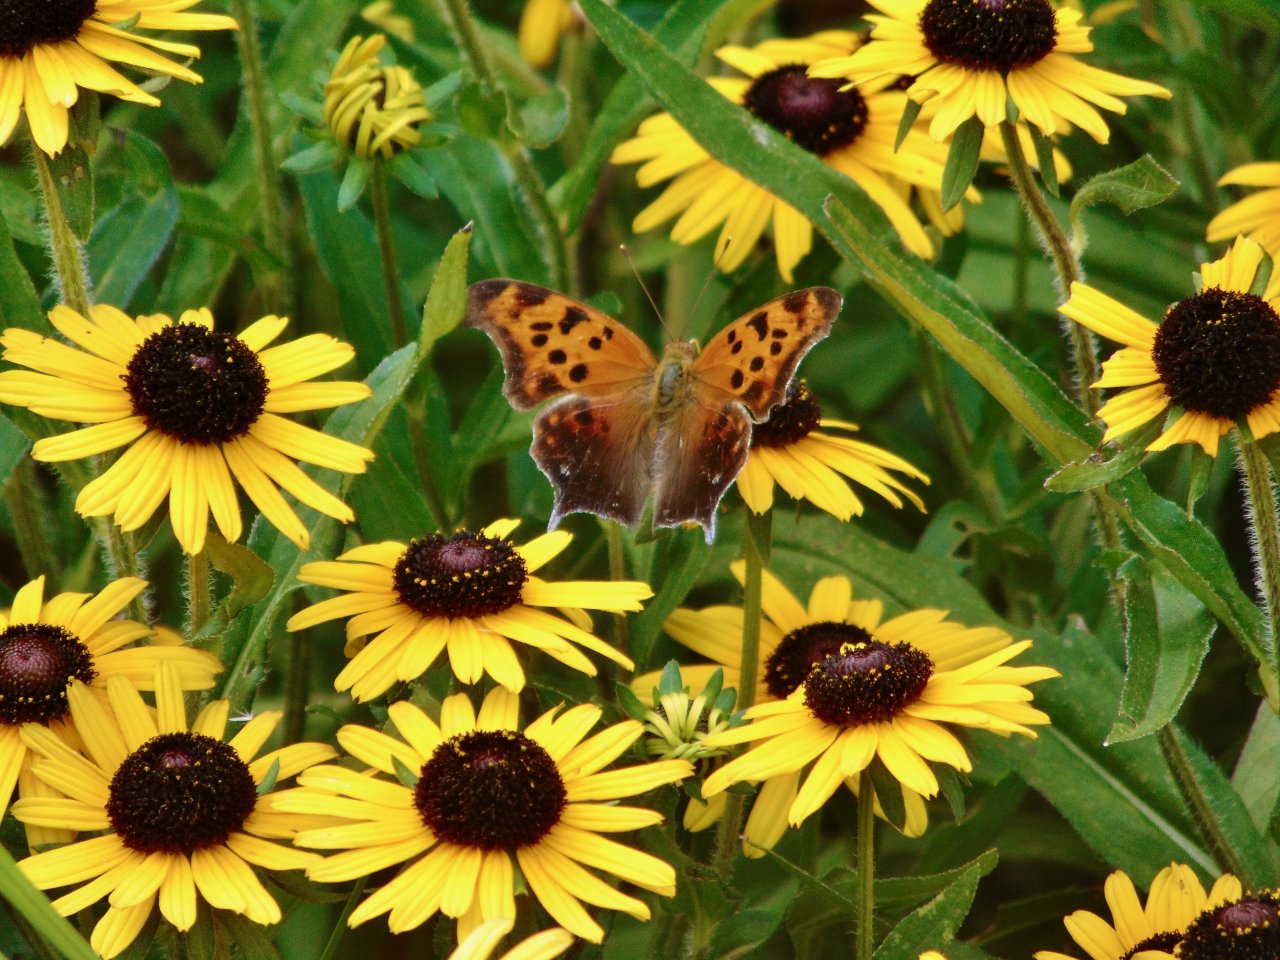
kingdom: Animalia
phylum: Arthropoda
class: Insecta
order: Lepidoptera
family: Nymphalidae
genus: Polygonia
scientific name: Polygonia interrogationis
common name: Question Mark
